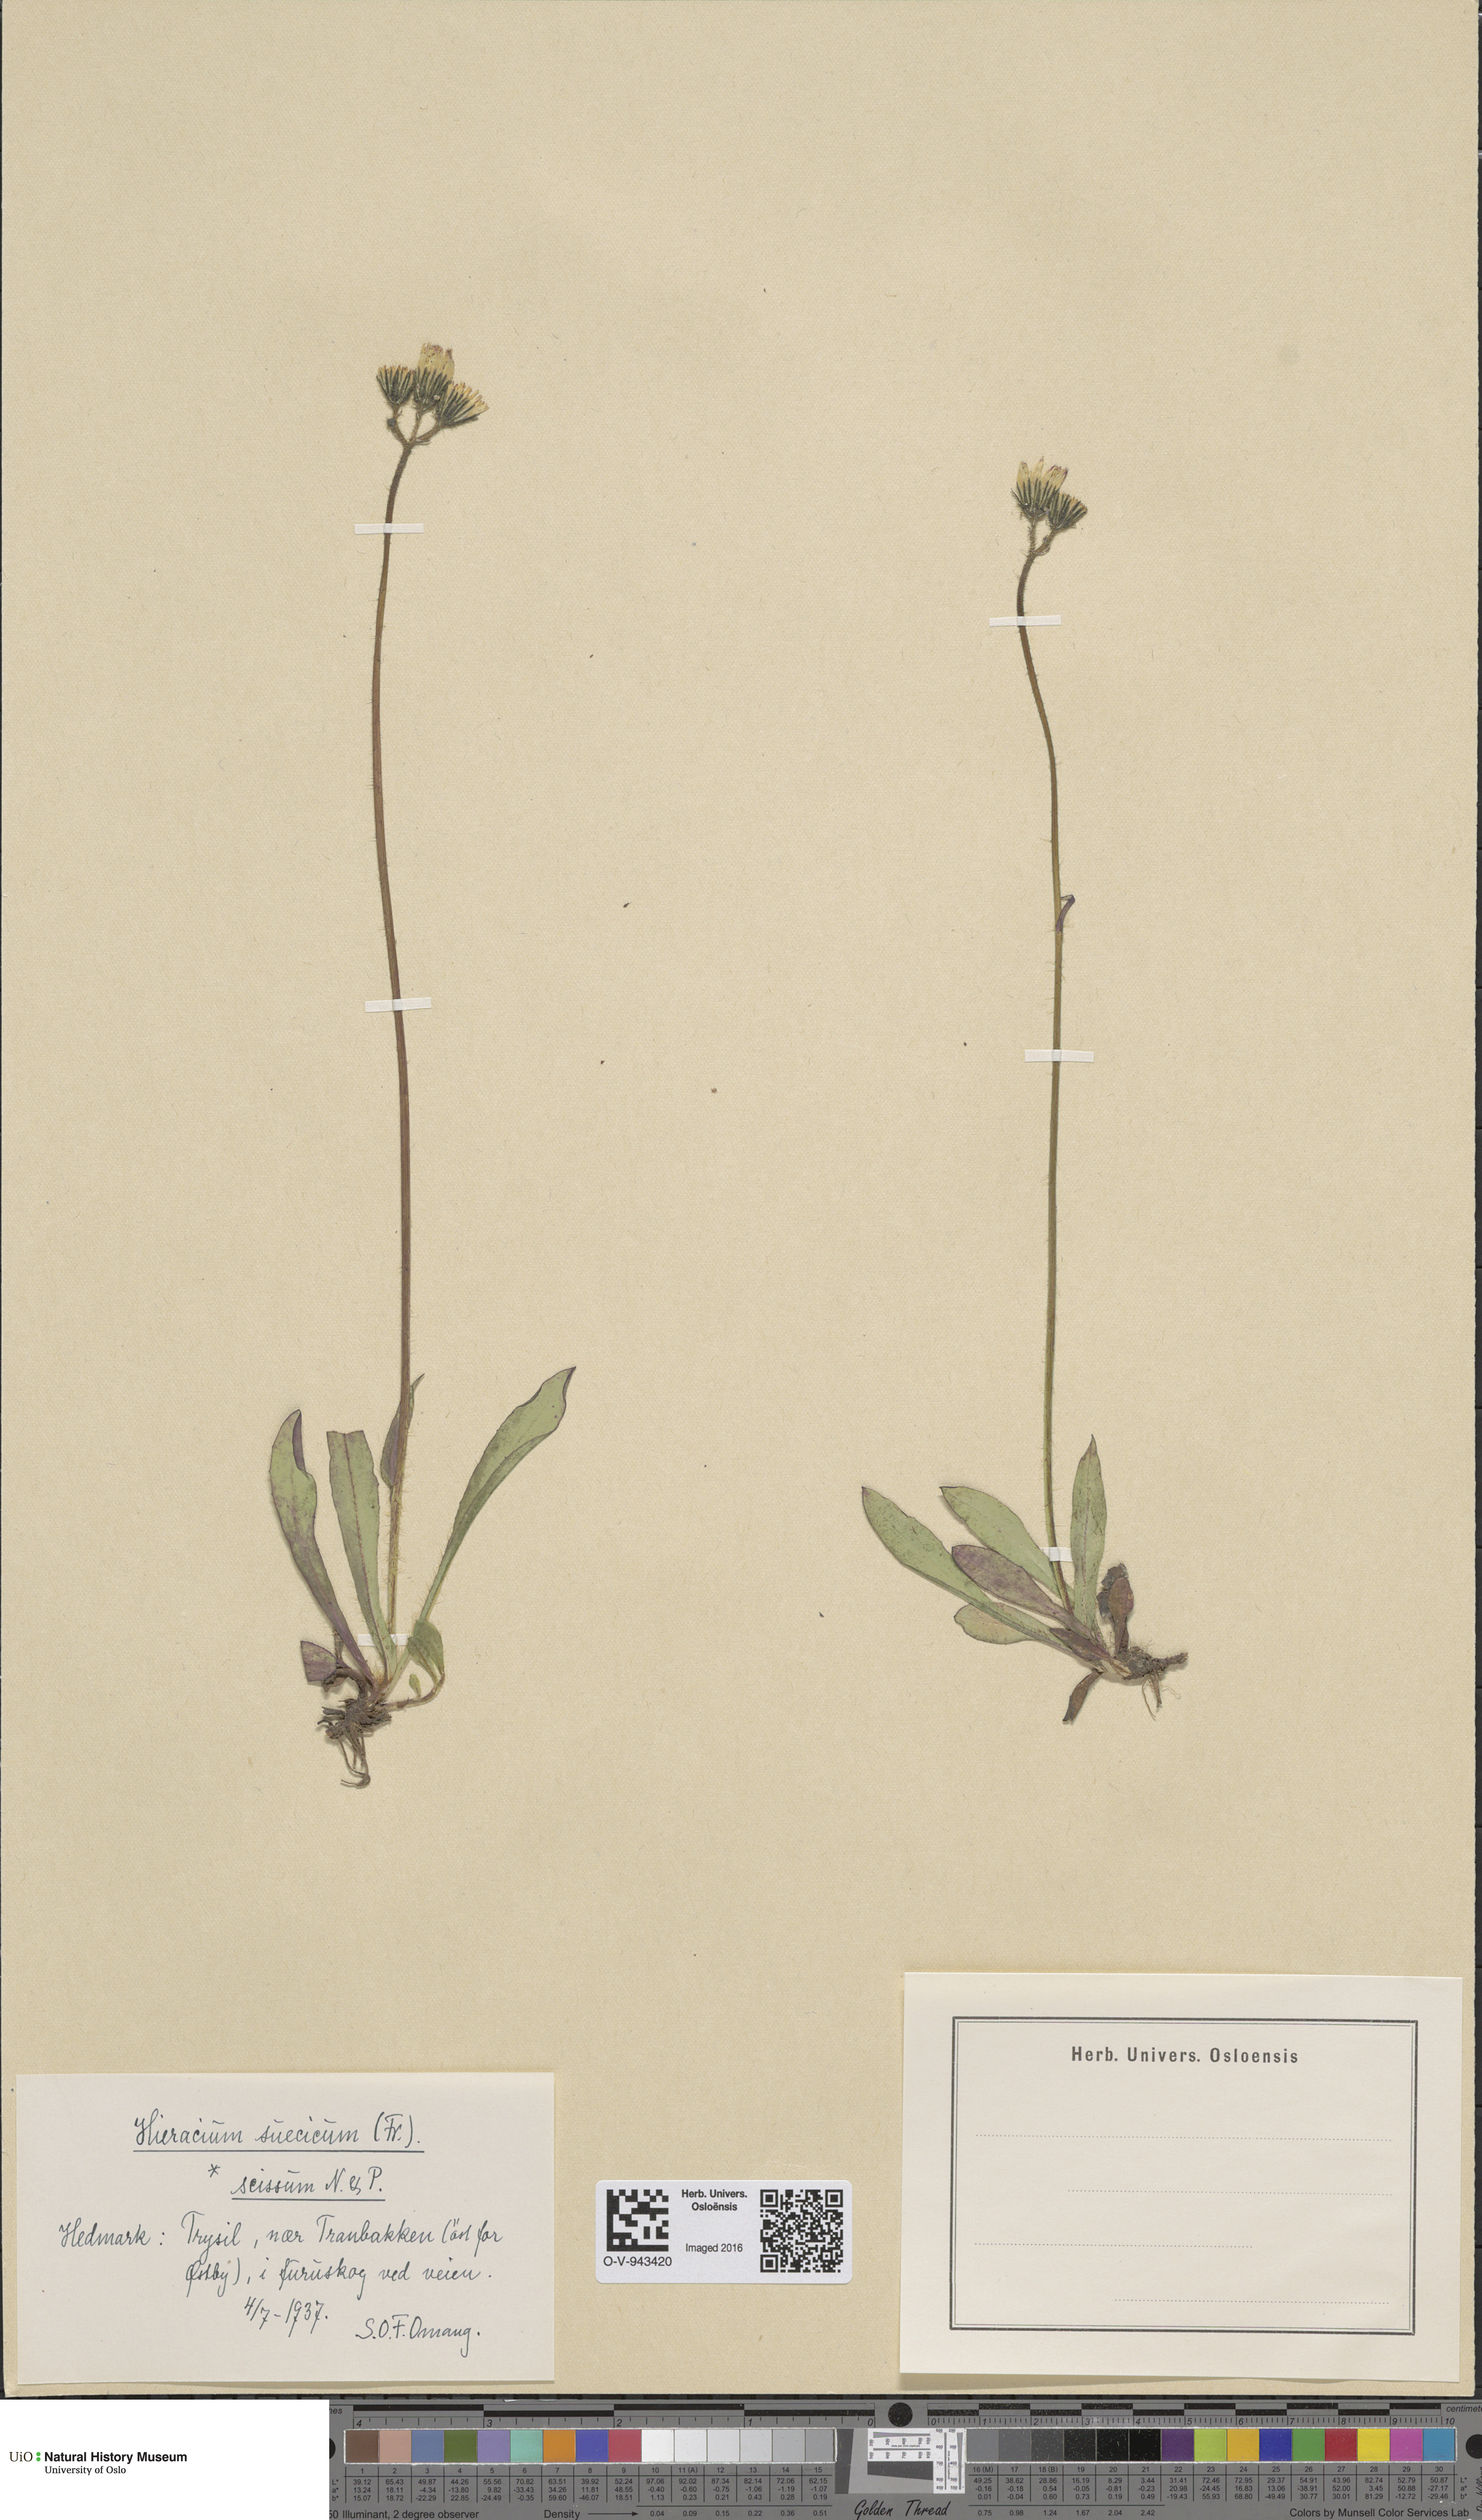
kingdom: Plantae
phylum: Tracheophyta
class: Magnoliopsida
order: Asterales
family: Asteraceae
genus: Pilosella
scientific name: Pilosella dubia
